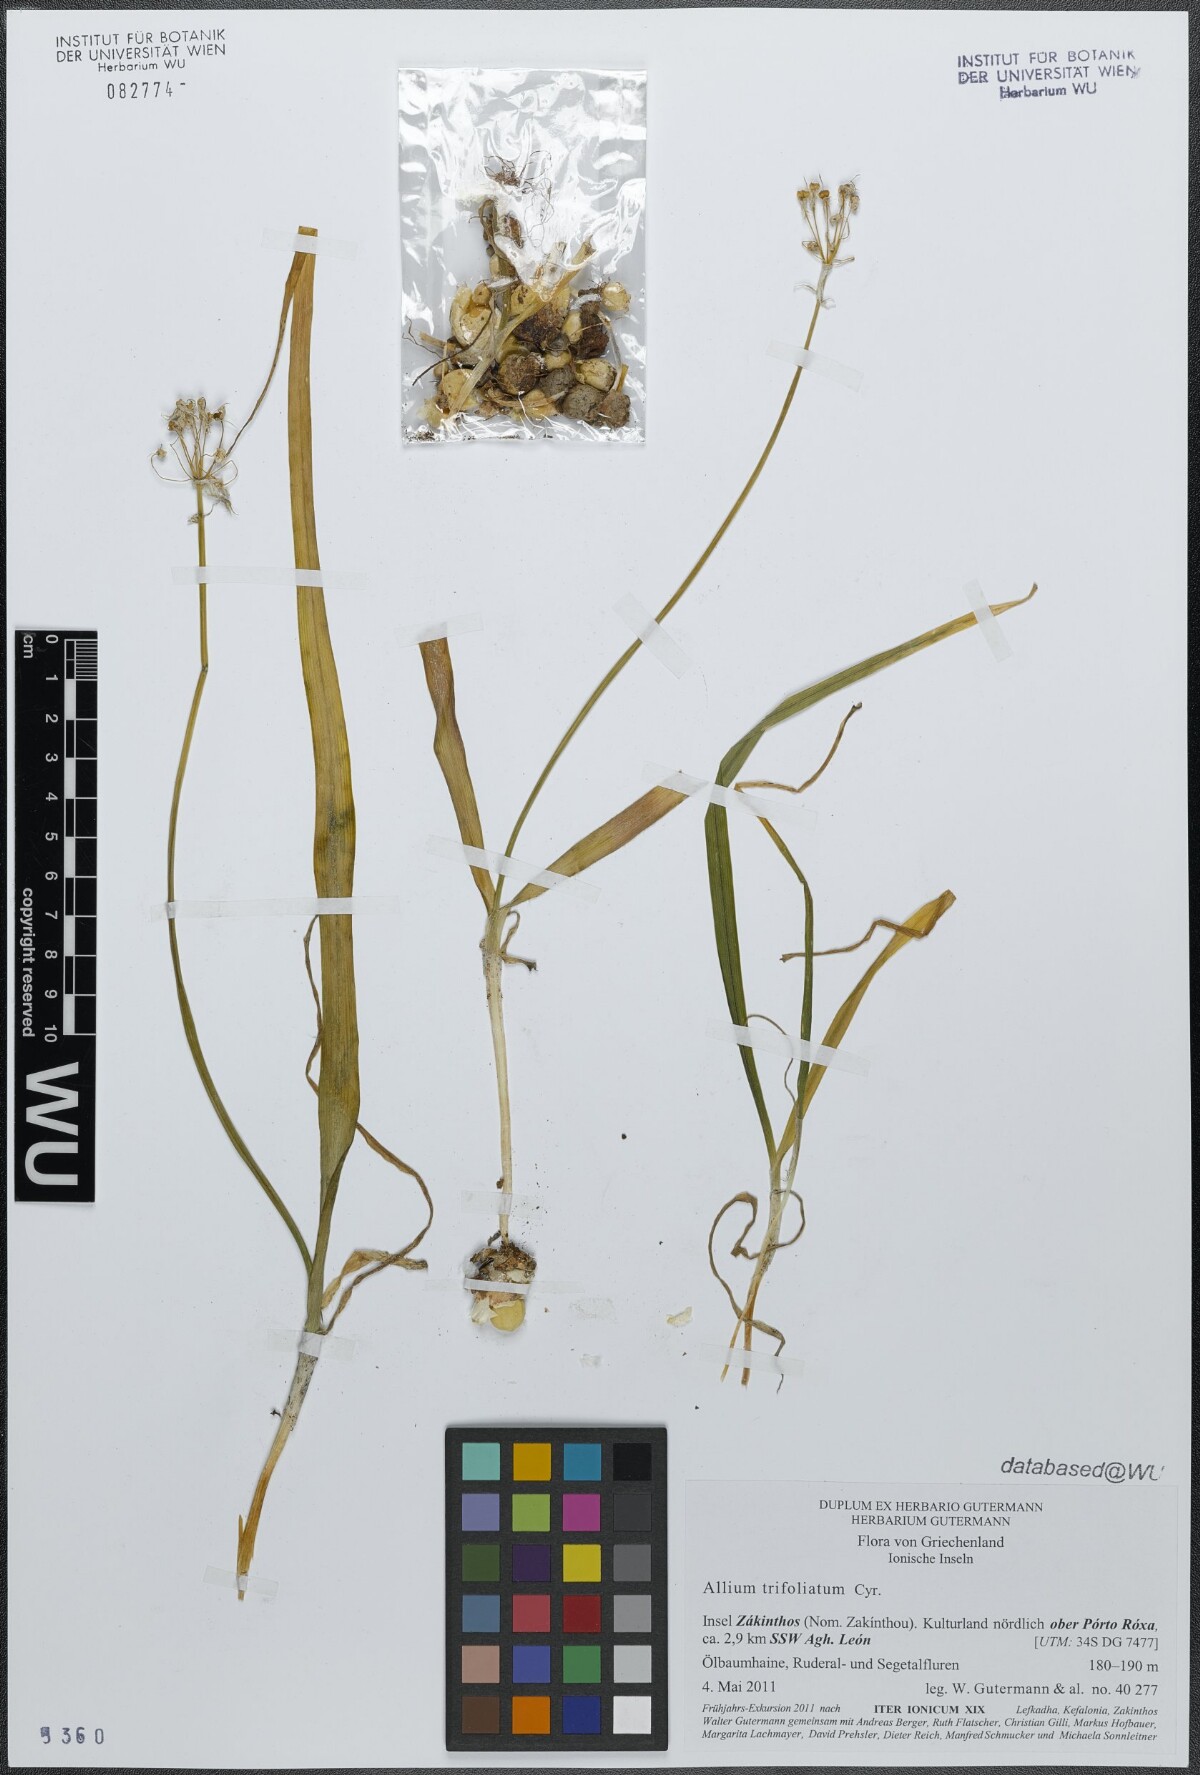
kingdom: Plantae
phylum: Tracheophyta
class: Liliopsida
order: Asparagales
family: Amaryllidaceae
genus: Allium
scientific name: Allium trifoliatum
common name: Pink garlic
